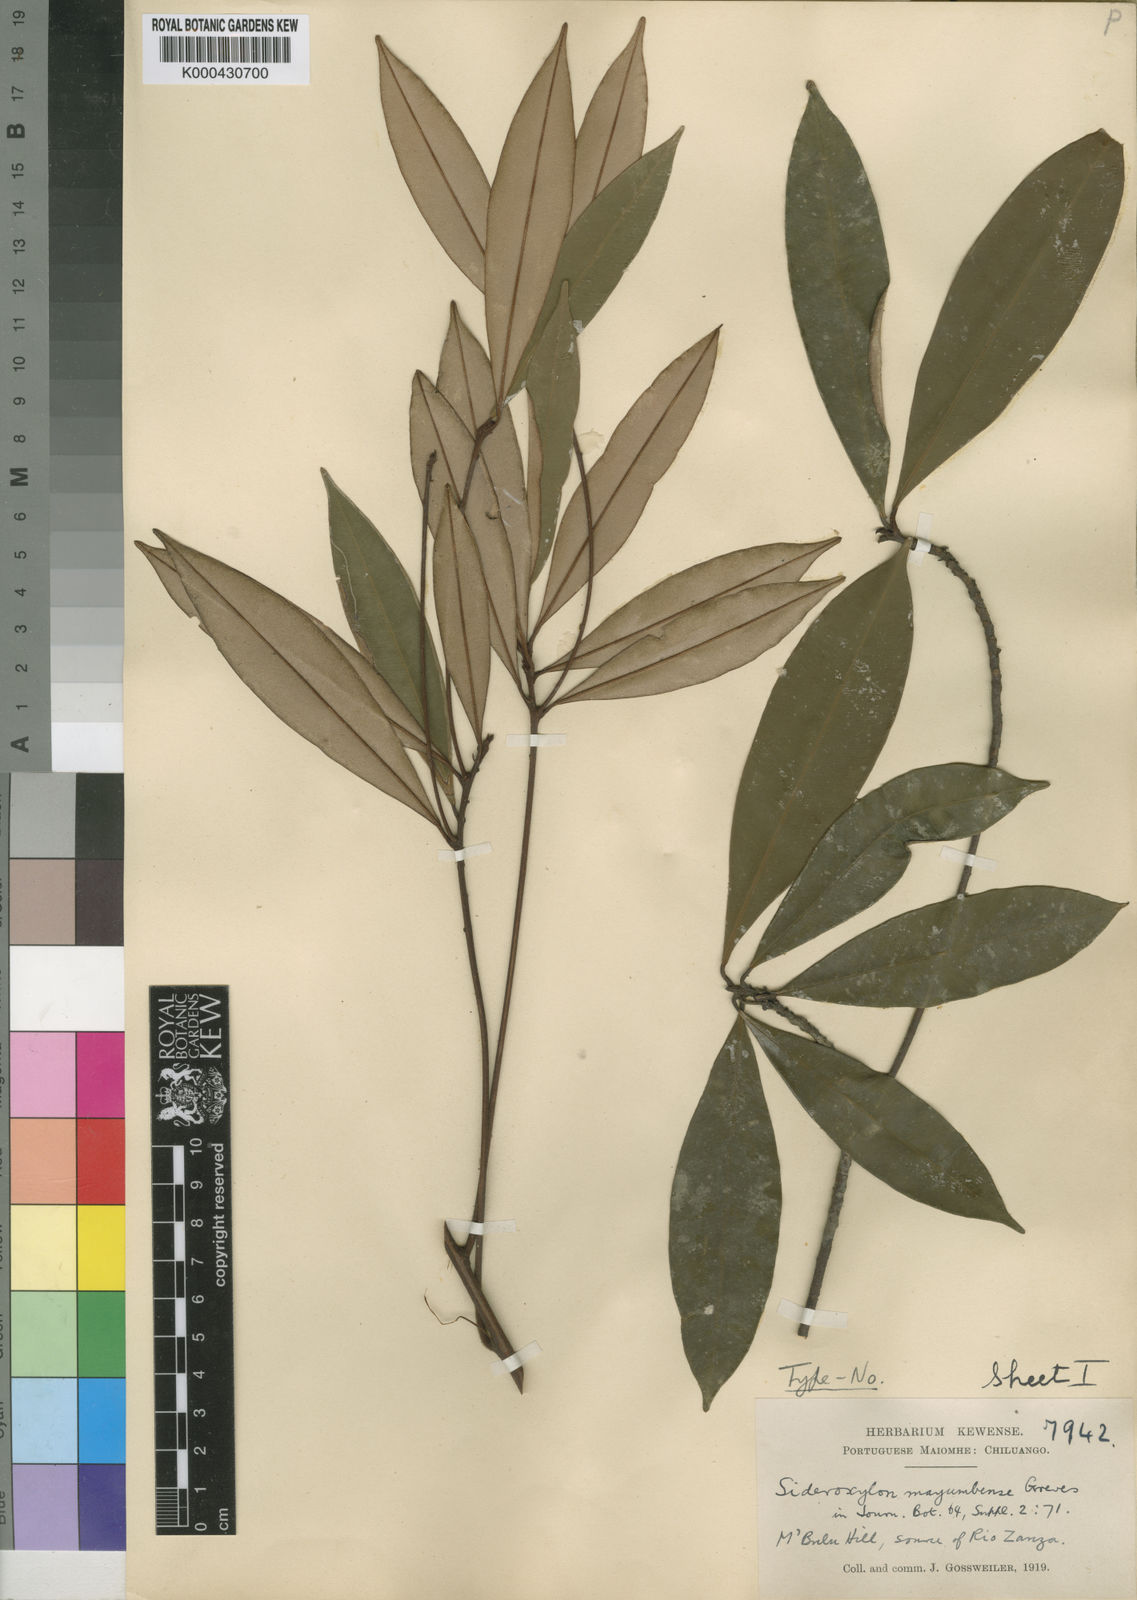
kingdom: Plantae
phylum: Tracheophyta
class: Magnoliopsida
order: Ericales
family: Sapotaceae
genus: Englerophytum
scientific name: Englerophytum
